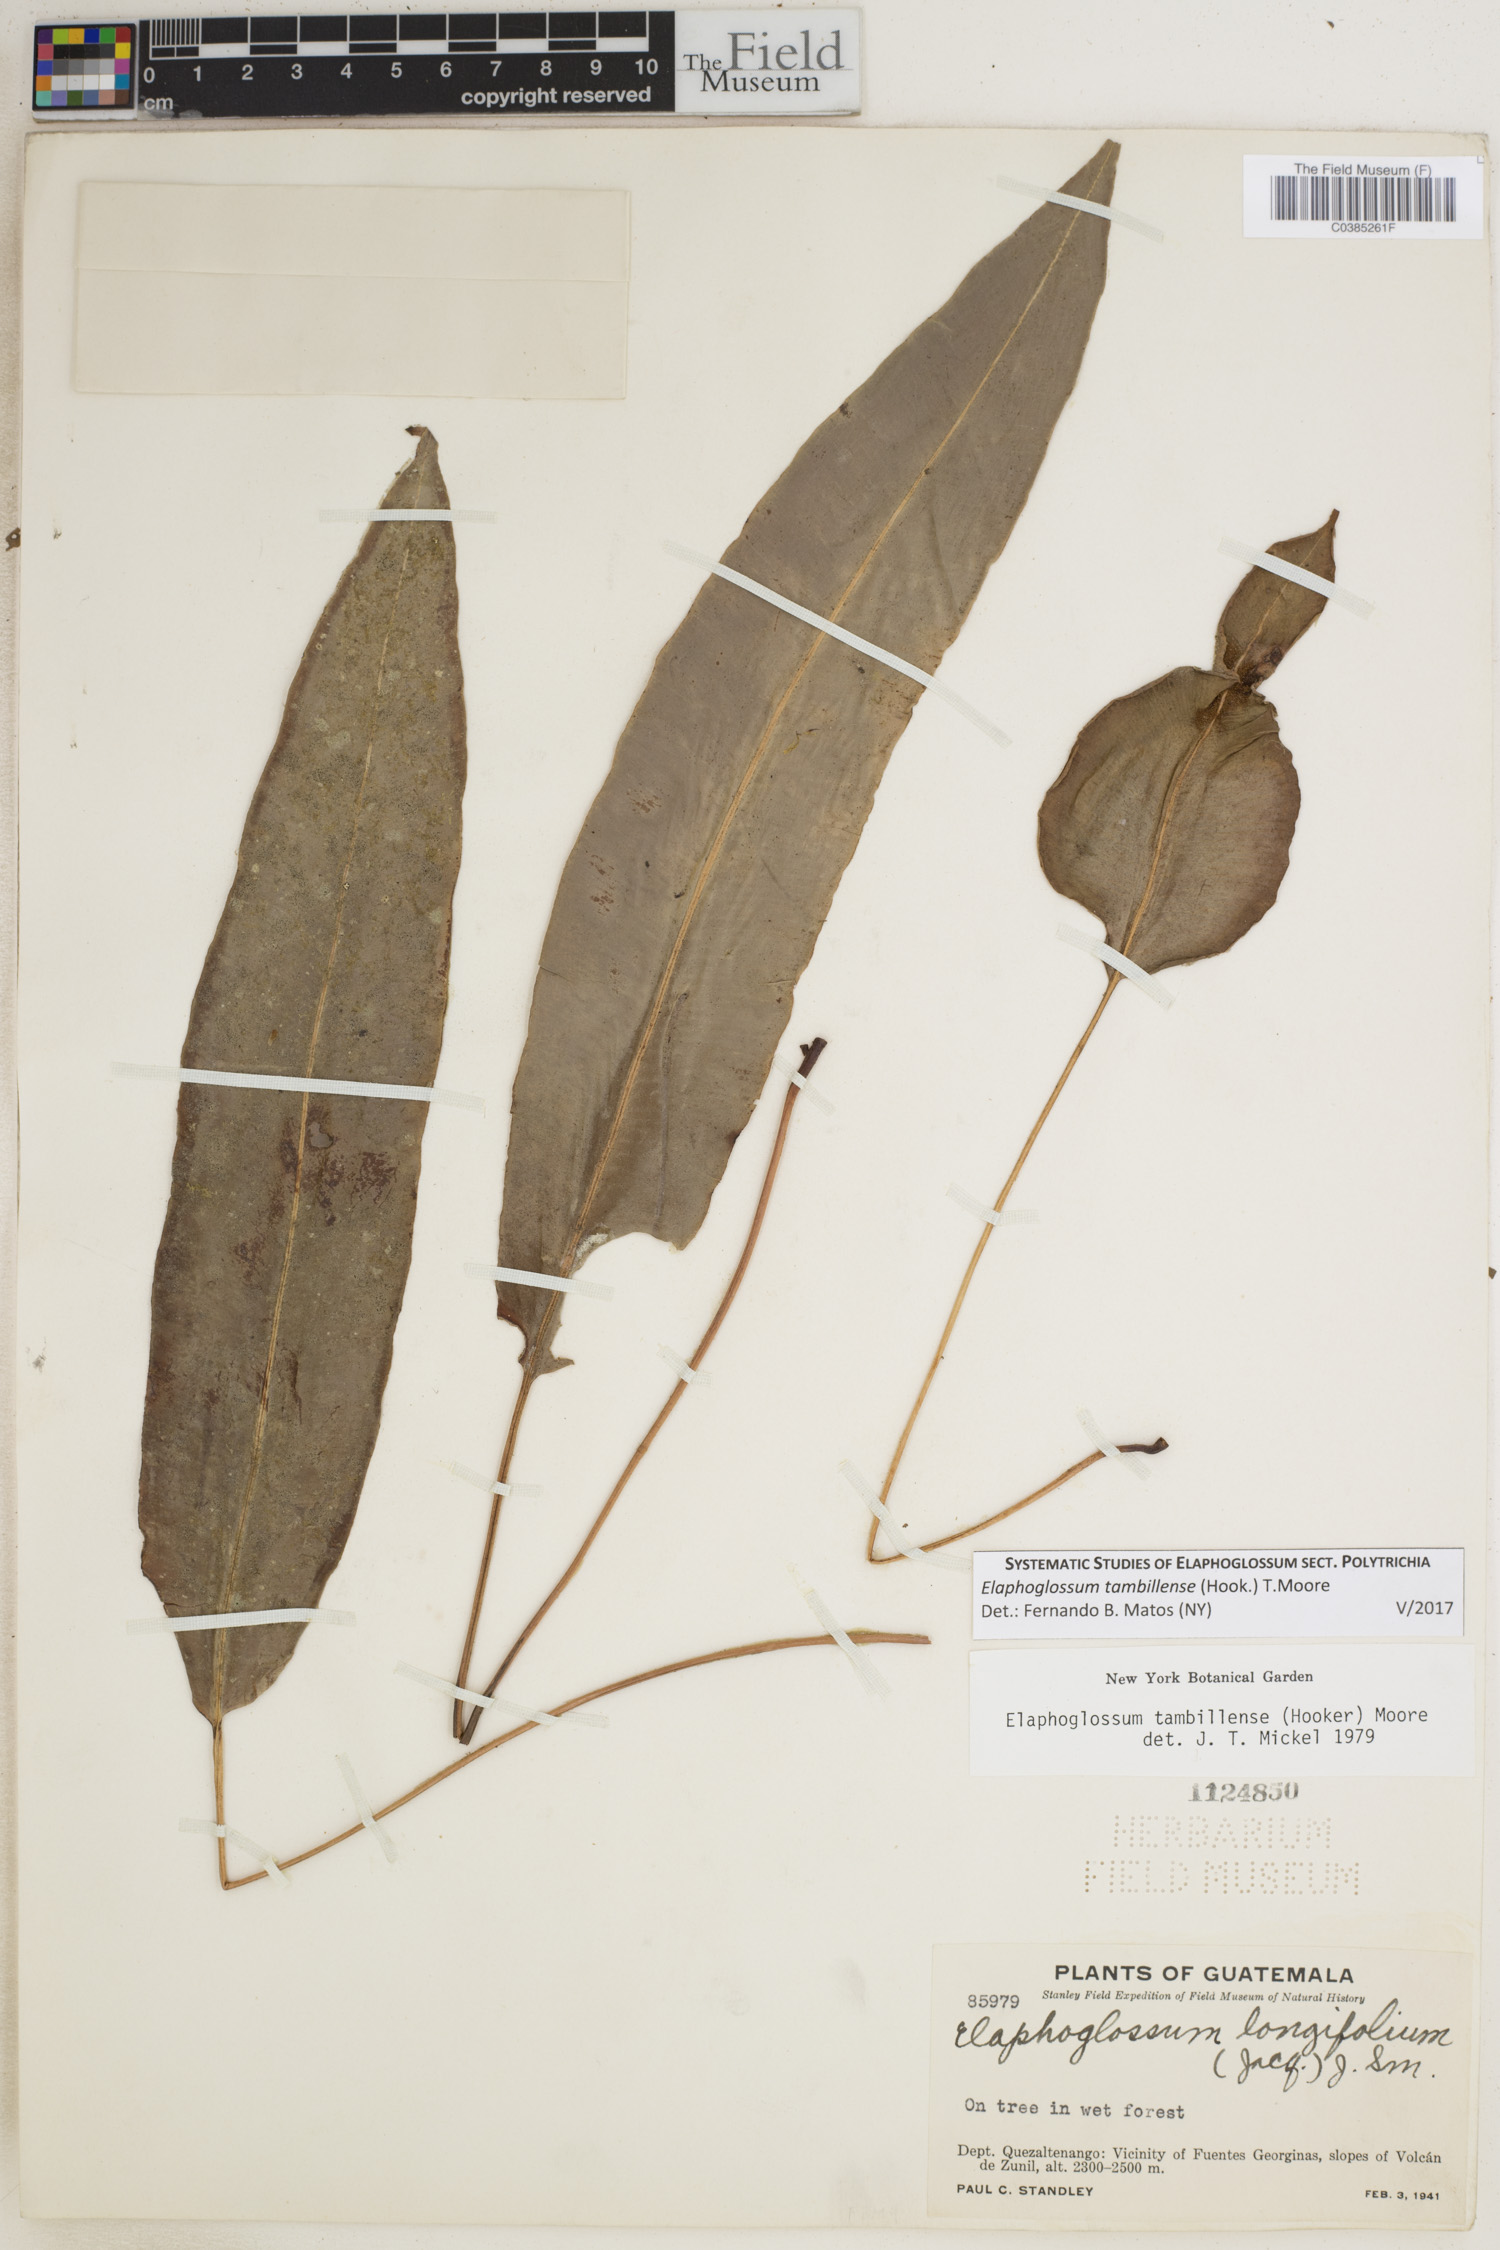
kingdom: Plantae
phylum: Tracheophyta
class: Polypodiopsida
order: Polypodiales
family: Dryopteridaceae
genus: Elaphoglossum
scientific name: Elaphoglossum tambillense
